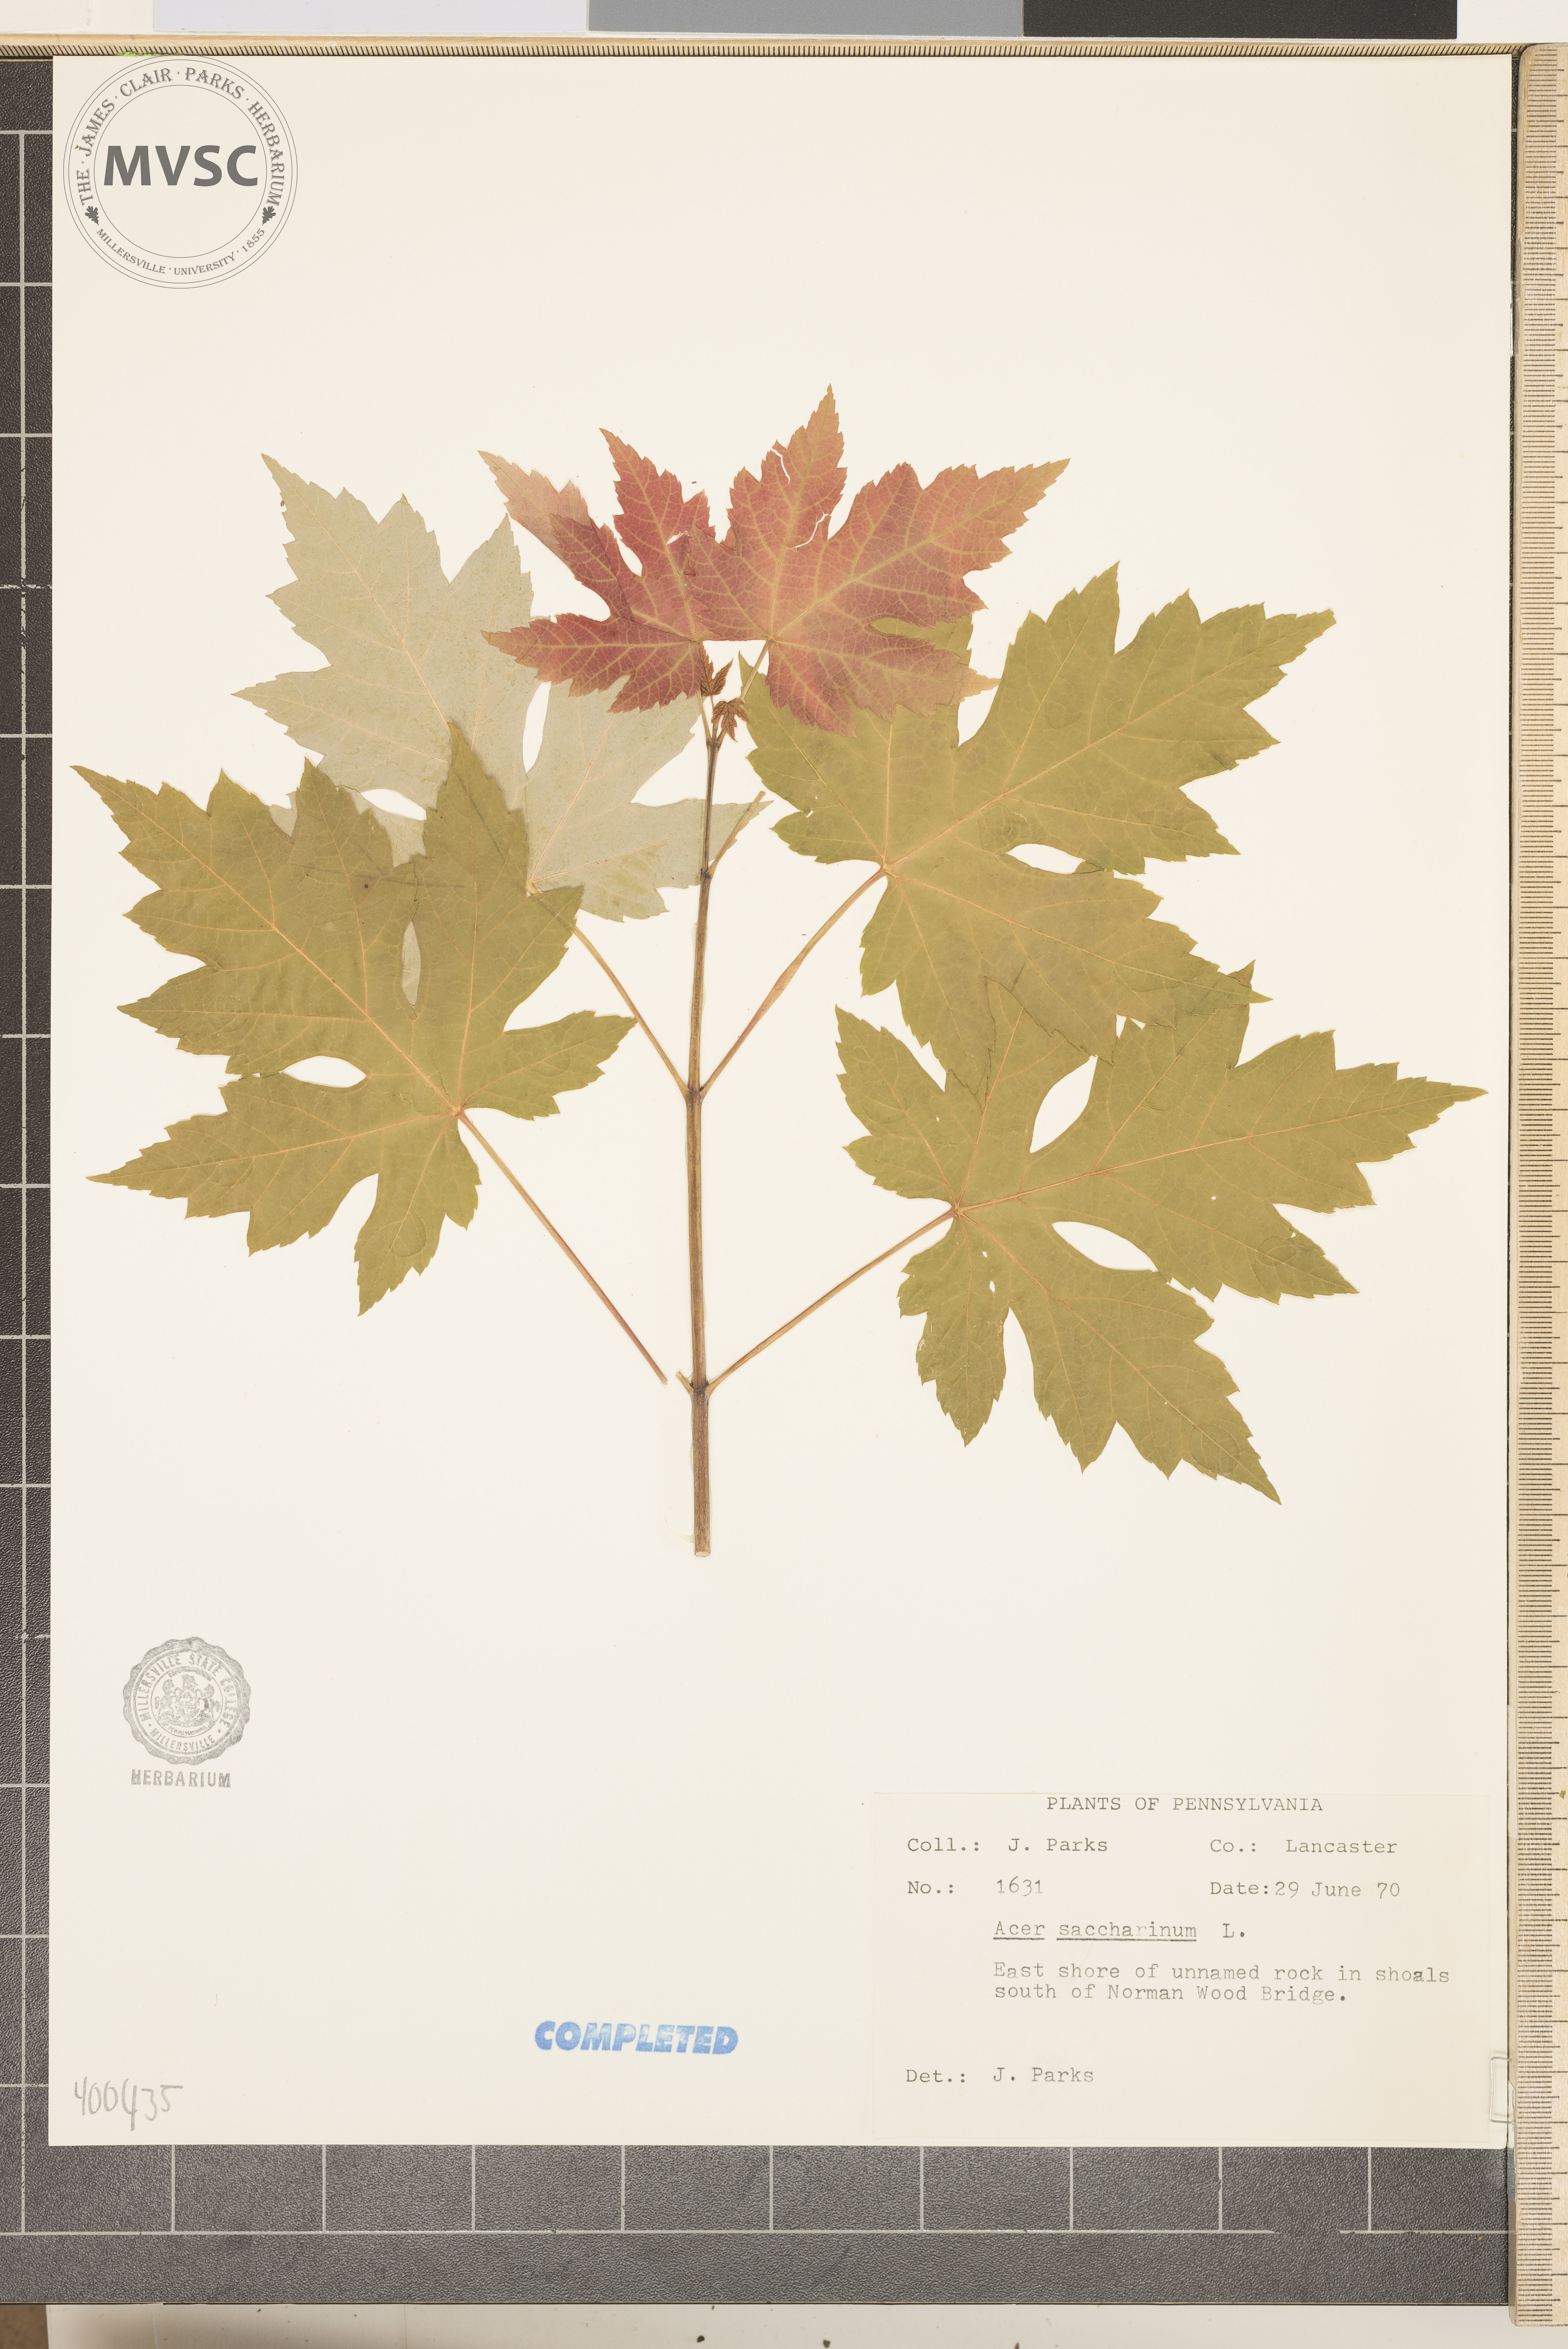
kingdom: Plantae
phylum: Tracheophyta
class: Magnoliopsida
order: Sapindales
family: Sapindaceae
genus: Acer
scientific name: Acer saccharinum
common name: Silver maple
